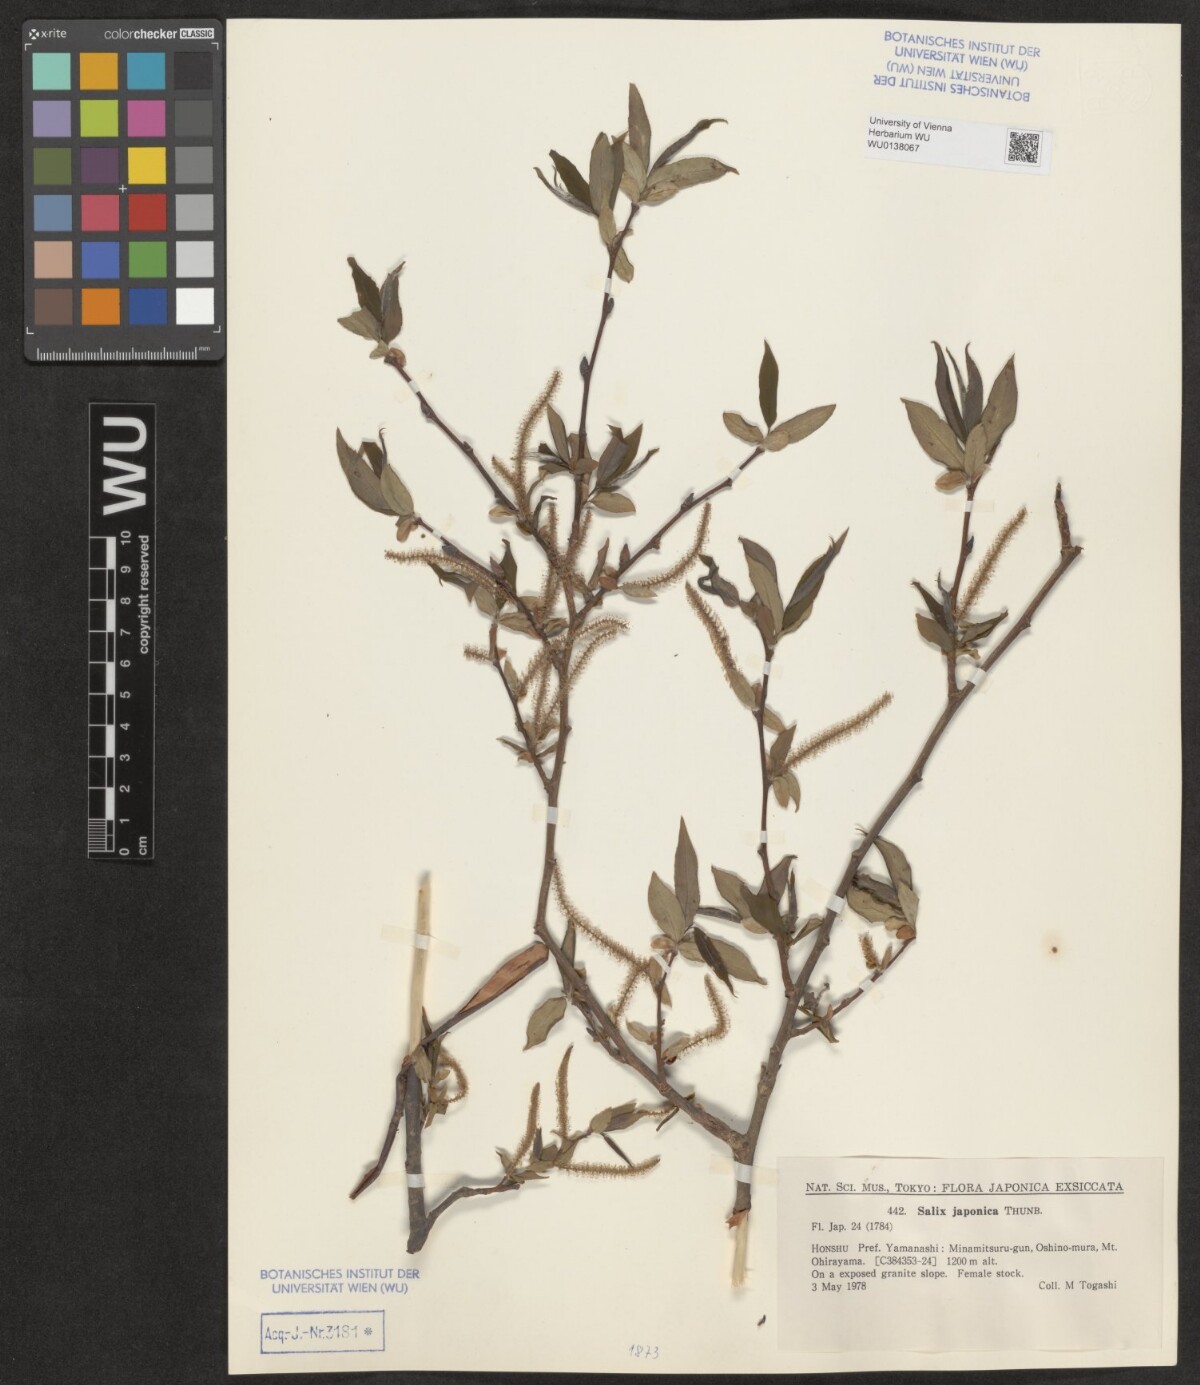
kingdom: Plantae
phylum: Tracheophyta
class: Magnoliopsida
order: Malpighiales
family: Salicaceae
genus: Salix
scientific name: Salix japonica
